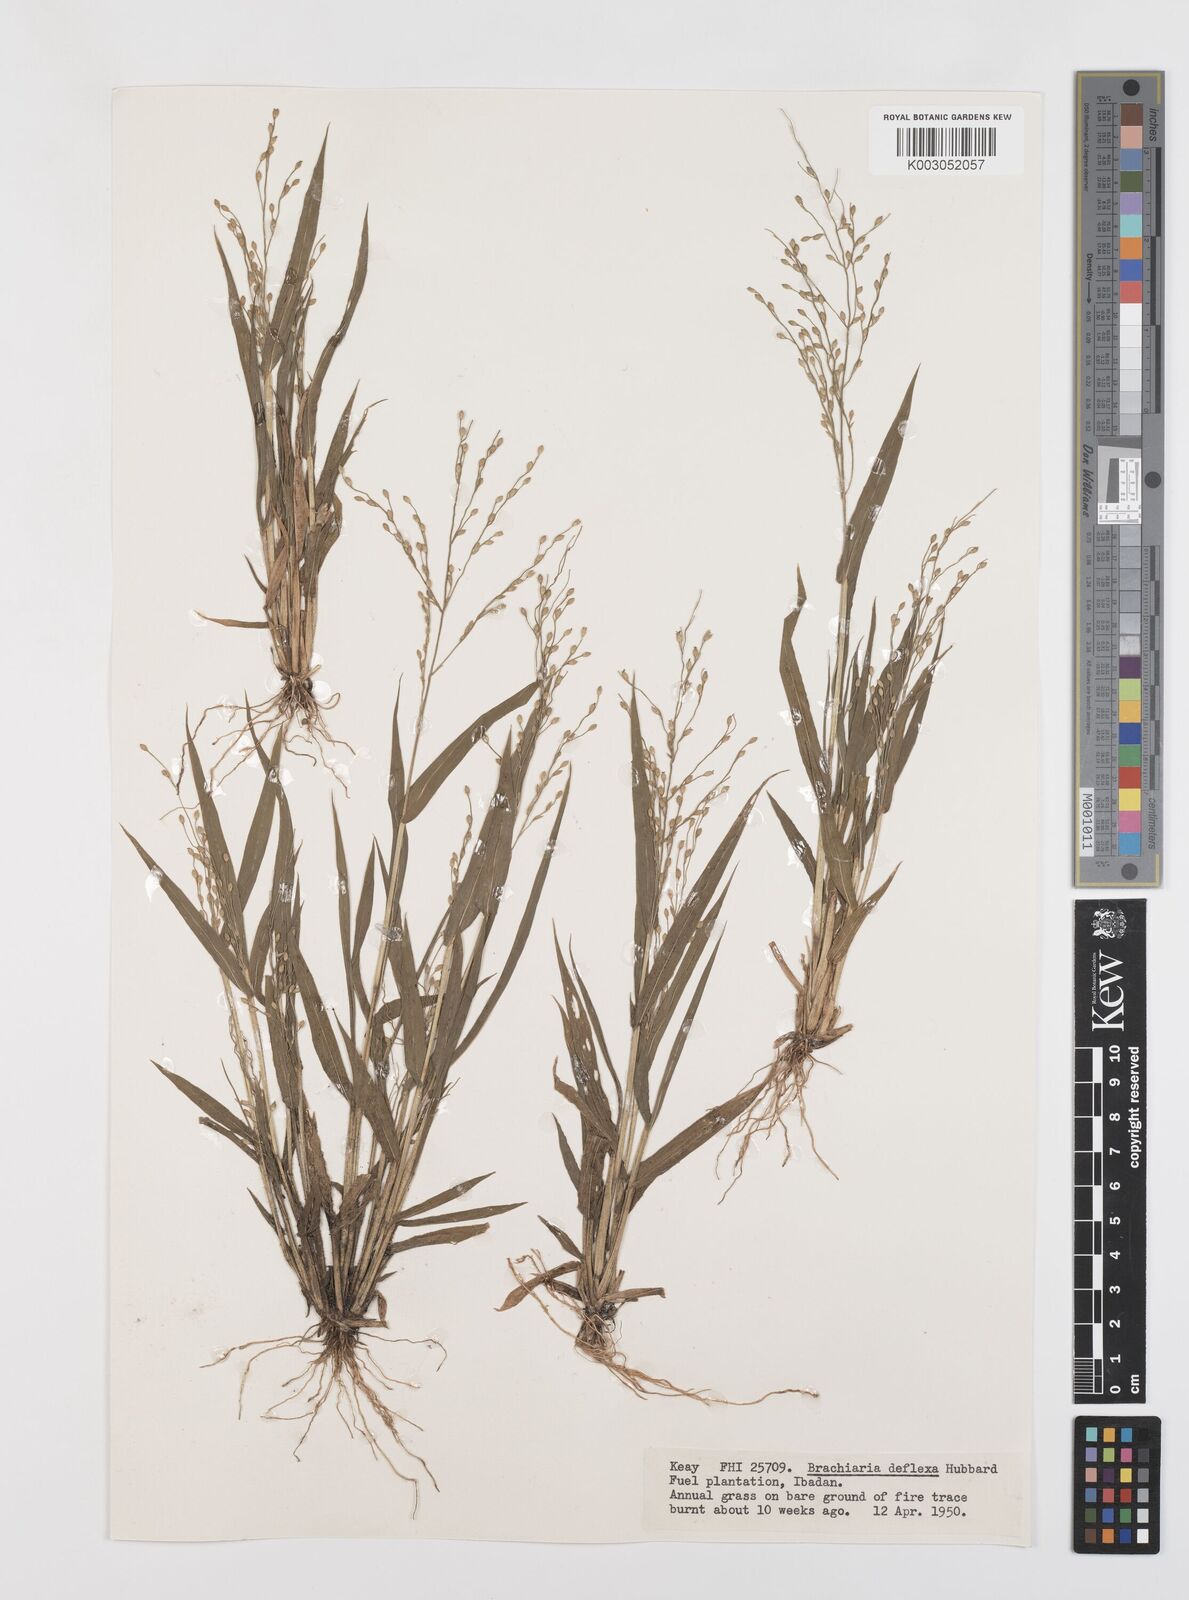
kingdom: Plantae
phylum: Tracheophyta
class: Liliopsida
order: Poales
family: Poaceae
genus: Urochloa
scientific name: Urochloa deflexa
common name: Guinea millet
